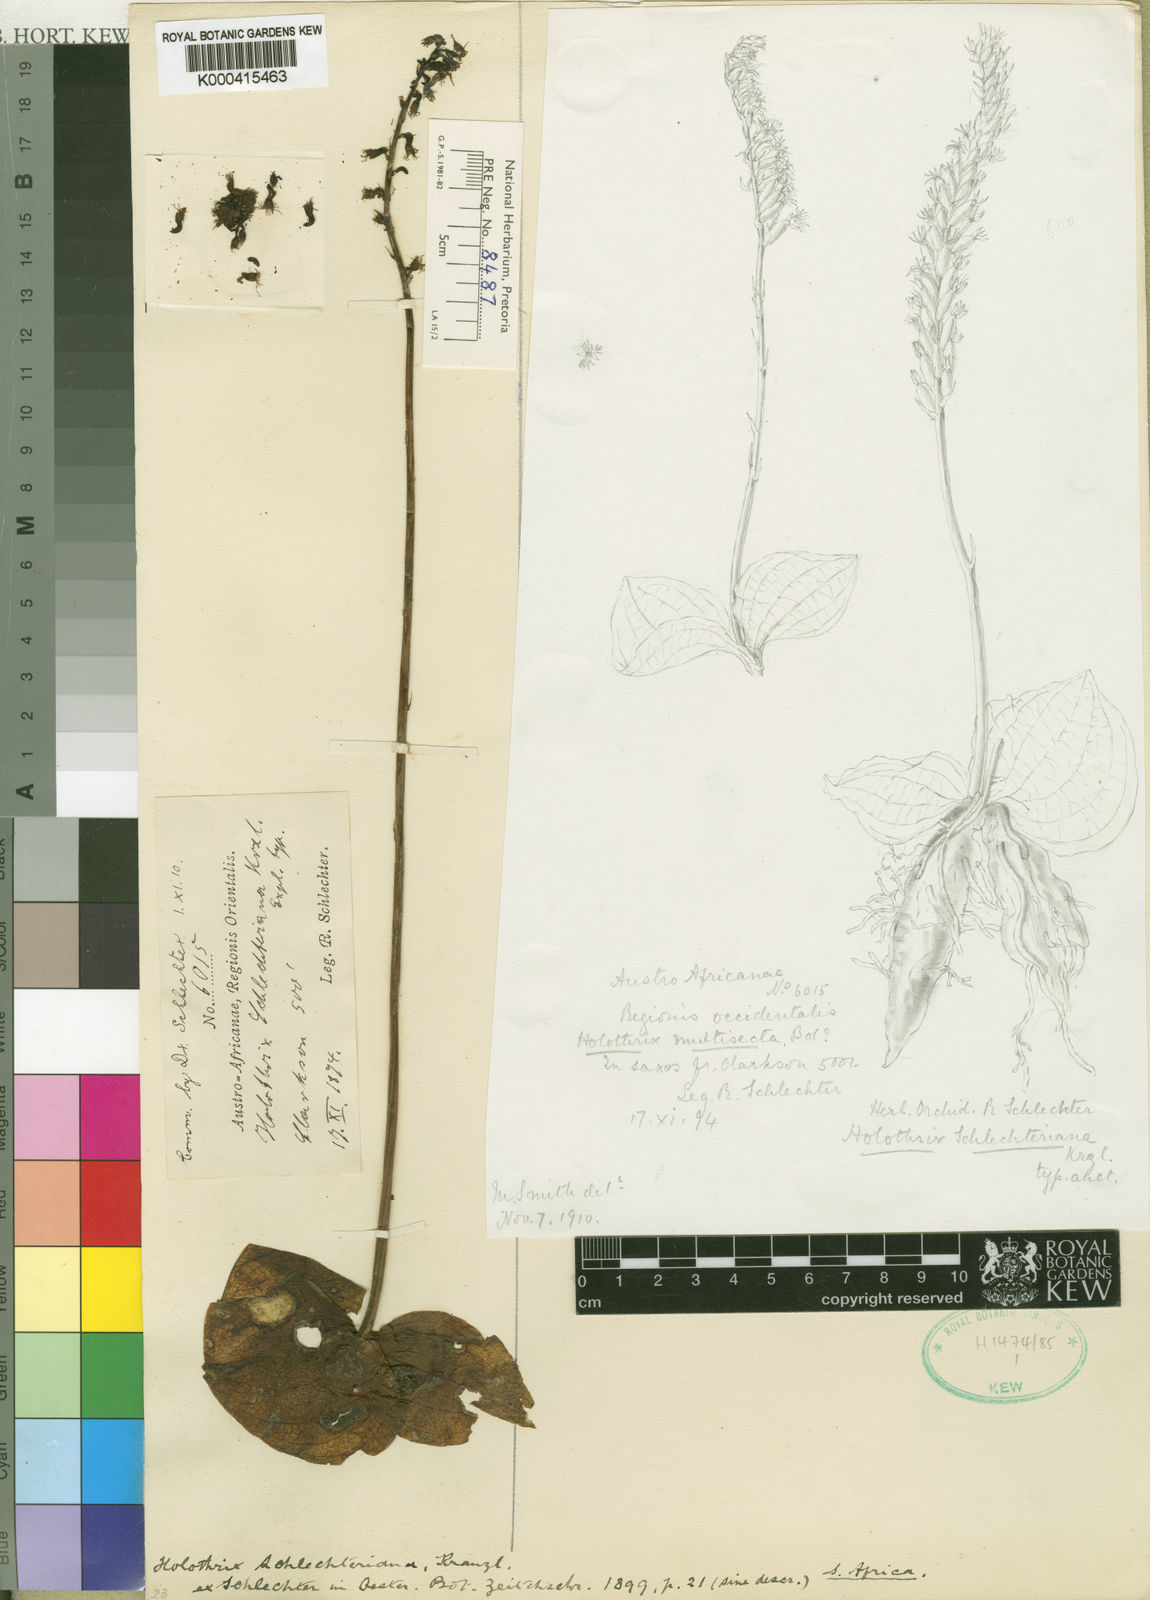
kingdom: Plantae
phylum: Tracheophyta
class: Liliopsida
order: Asparagales
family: Orchidaceae
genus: Holothrix
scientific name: Holothrix schlechteriana
